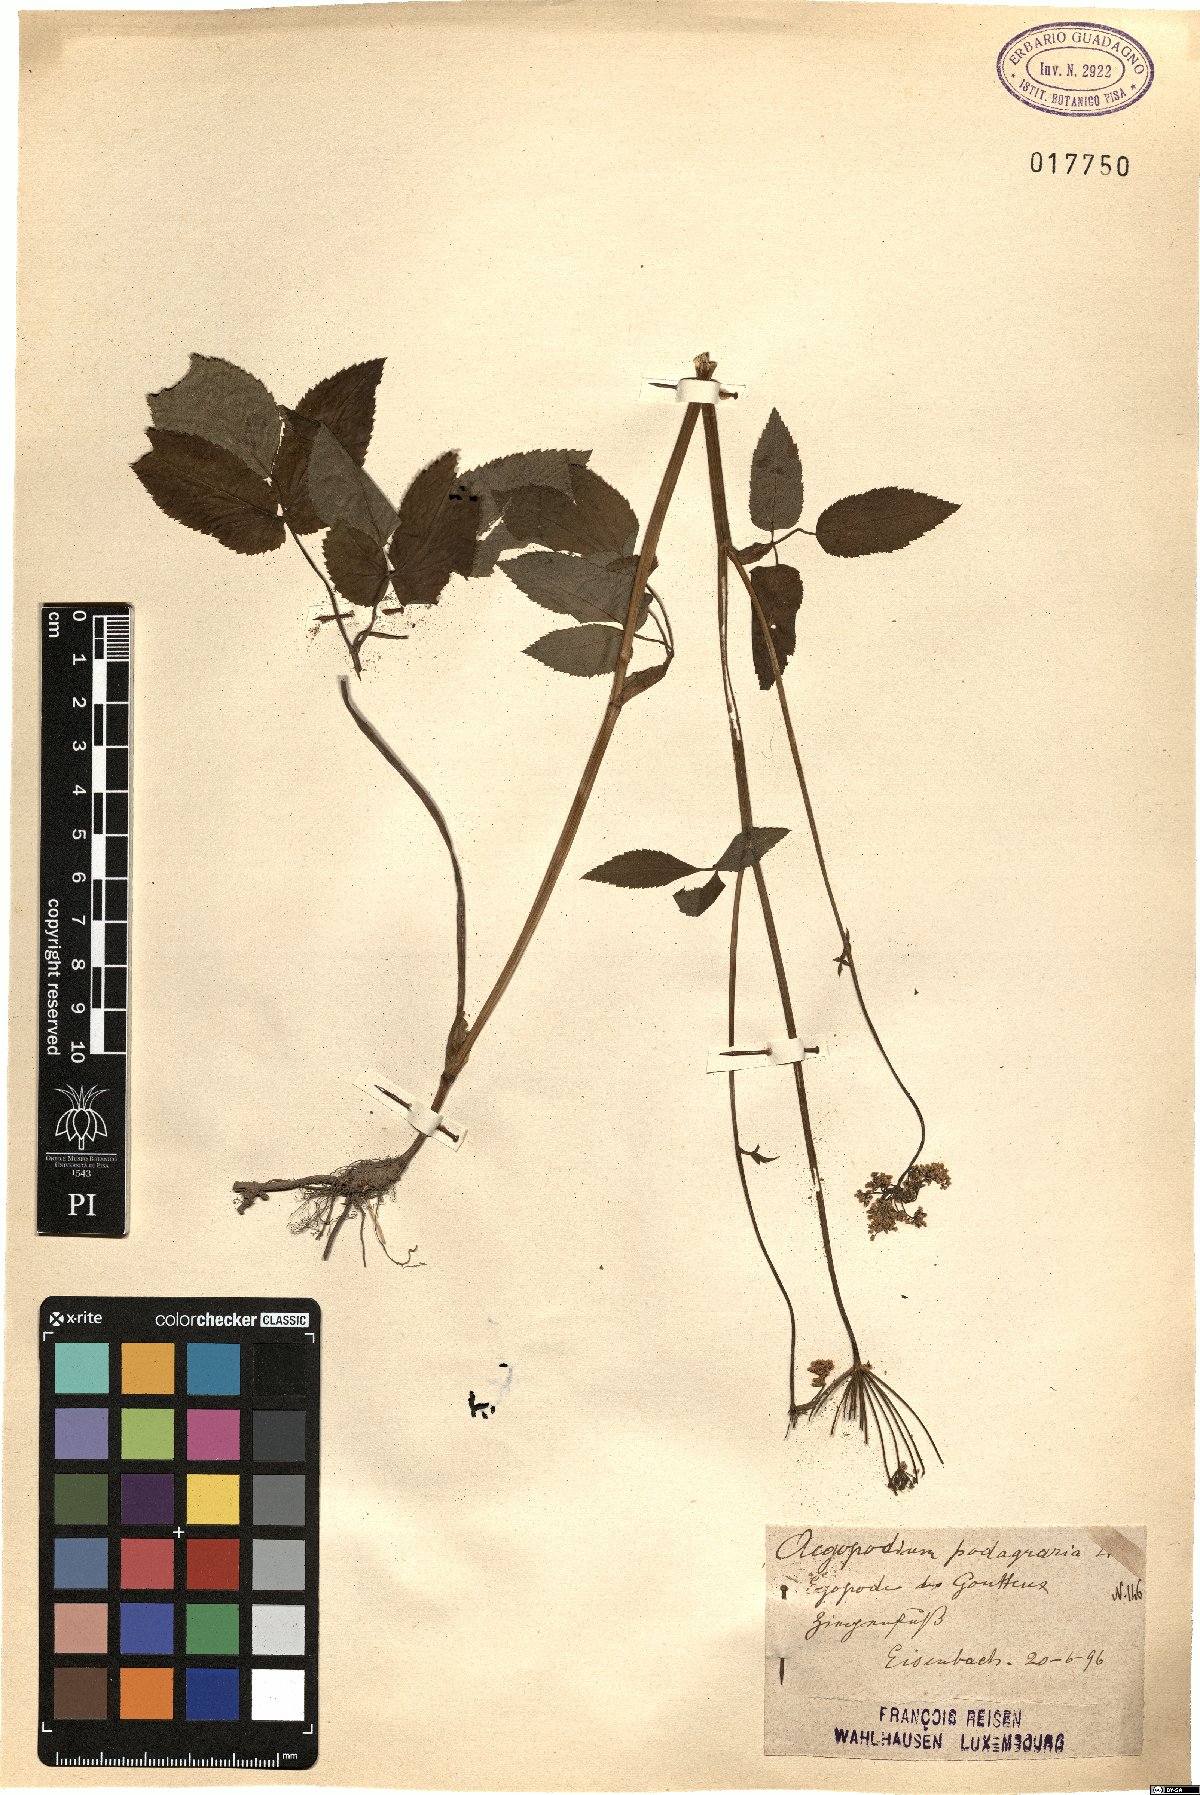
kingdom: Plantae
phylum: Tracheophyta
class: Magnoliopsida
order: Apiales
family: Apiaceae
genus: Aegopodium
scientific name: Aegopodium podagraria
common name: Ground-elder
